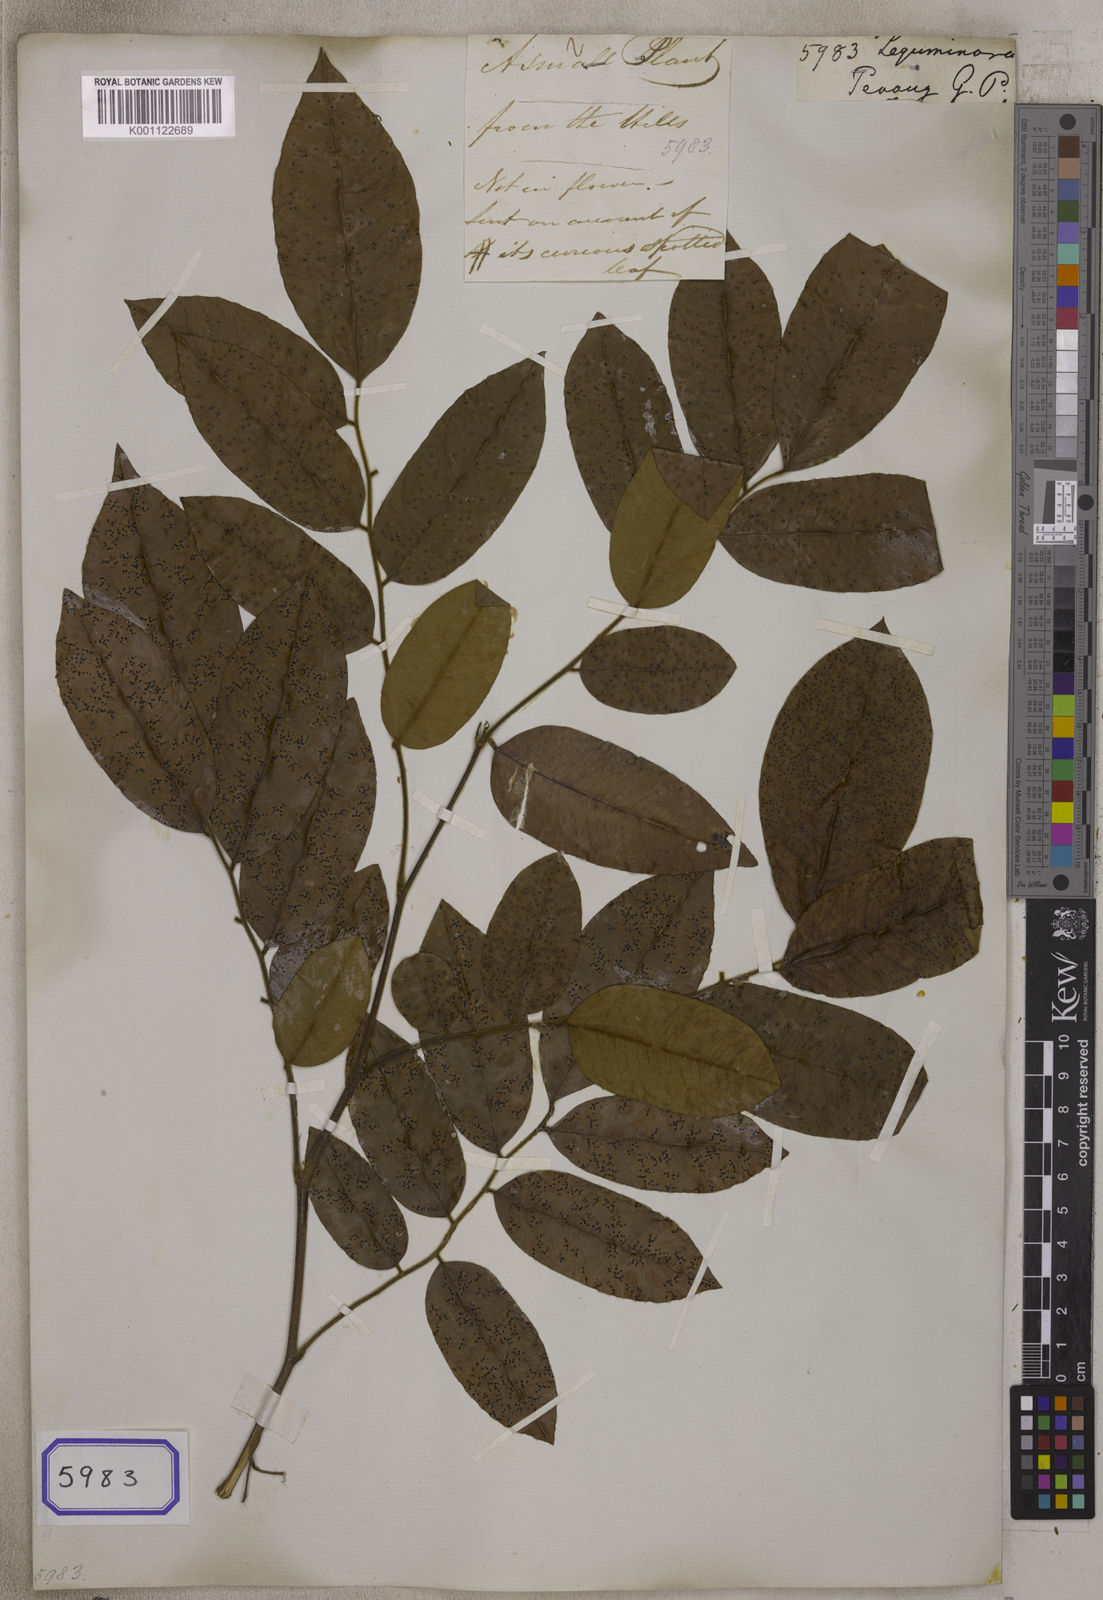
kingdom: Plantae
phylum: Tracheophyta
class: Magnoliopsida
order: Fabales
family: Fabaceae
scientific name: Fabaceae
